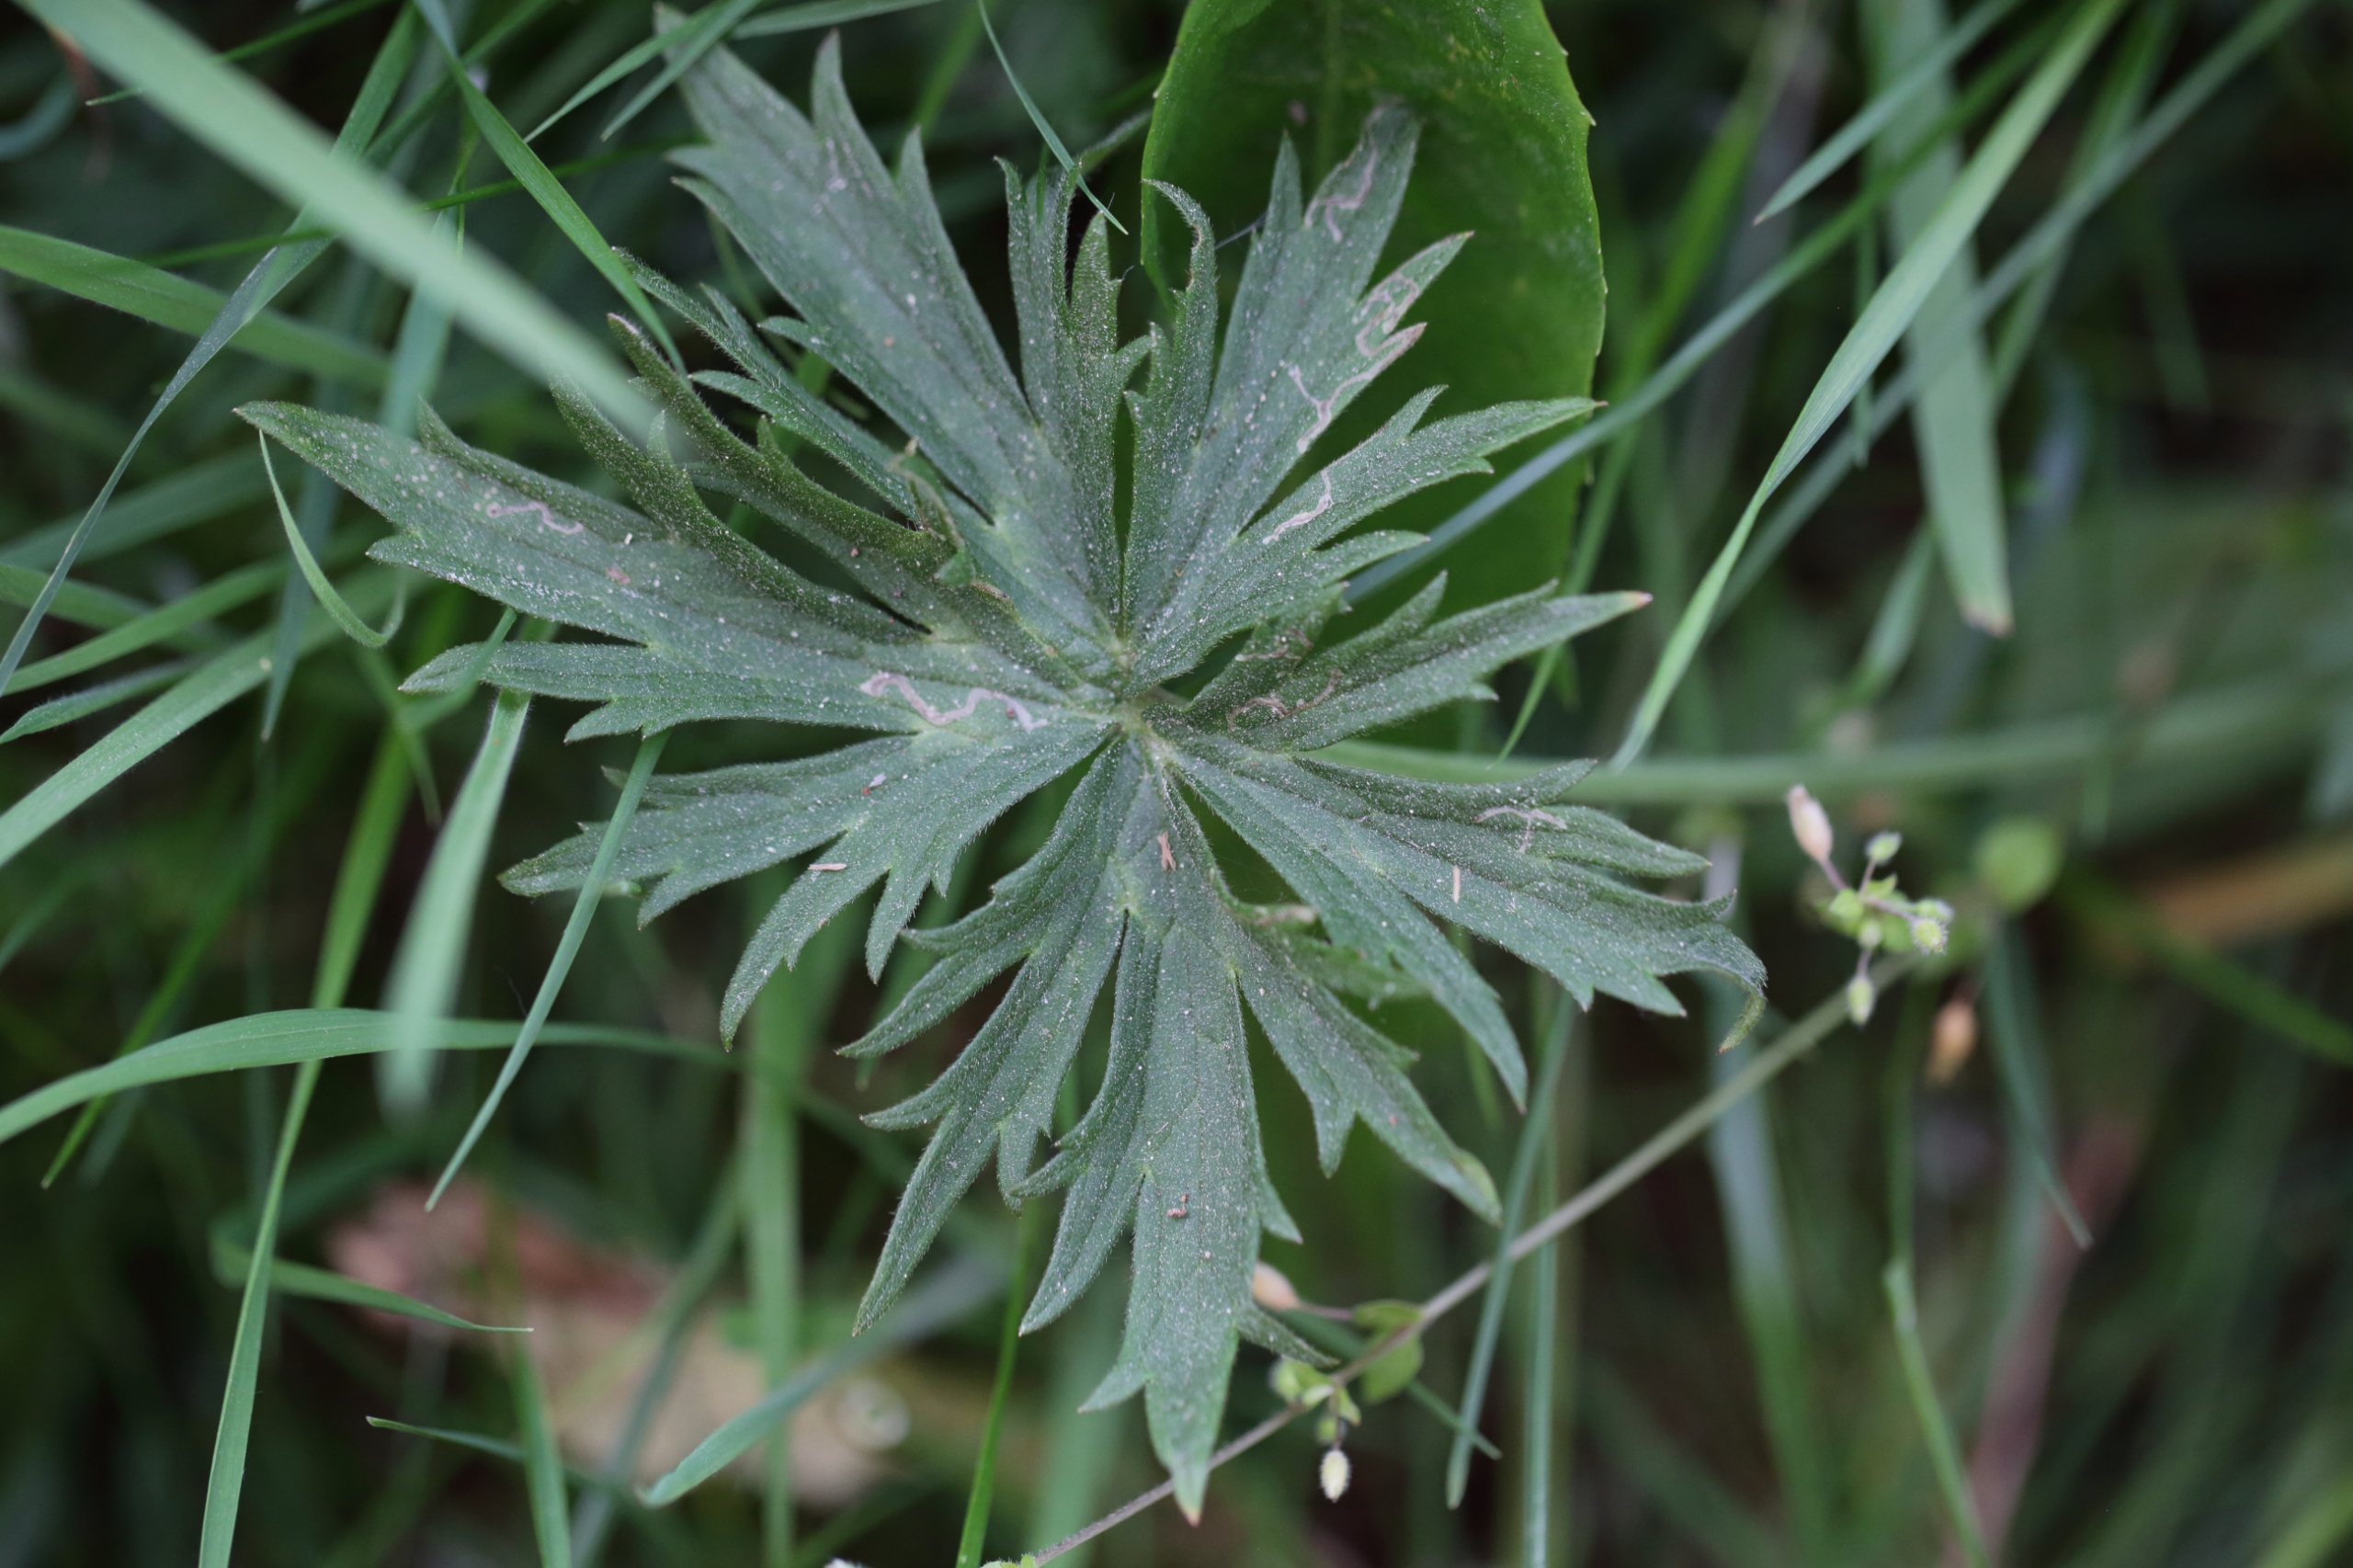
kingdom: Plantae
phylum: Tracheophyta
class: Magnoliopsida
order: Ranunculales
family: Ranunculaceae
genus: Ranunculus
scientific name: Ranunculus acris
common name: Bidende ranunkel
